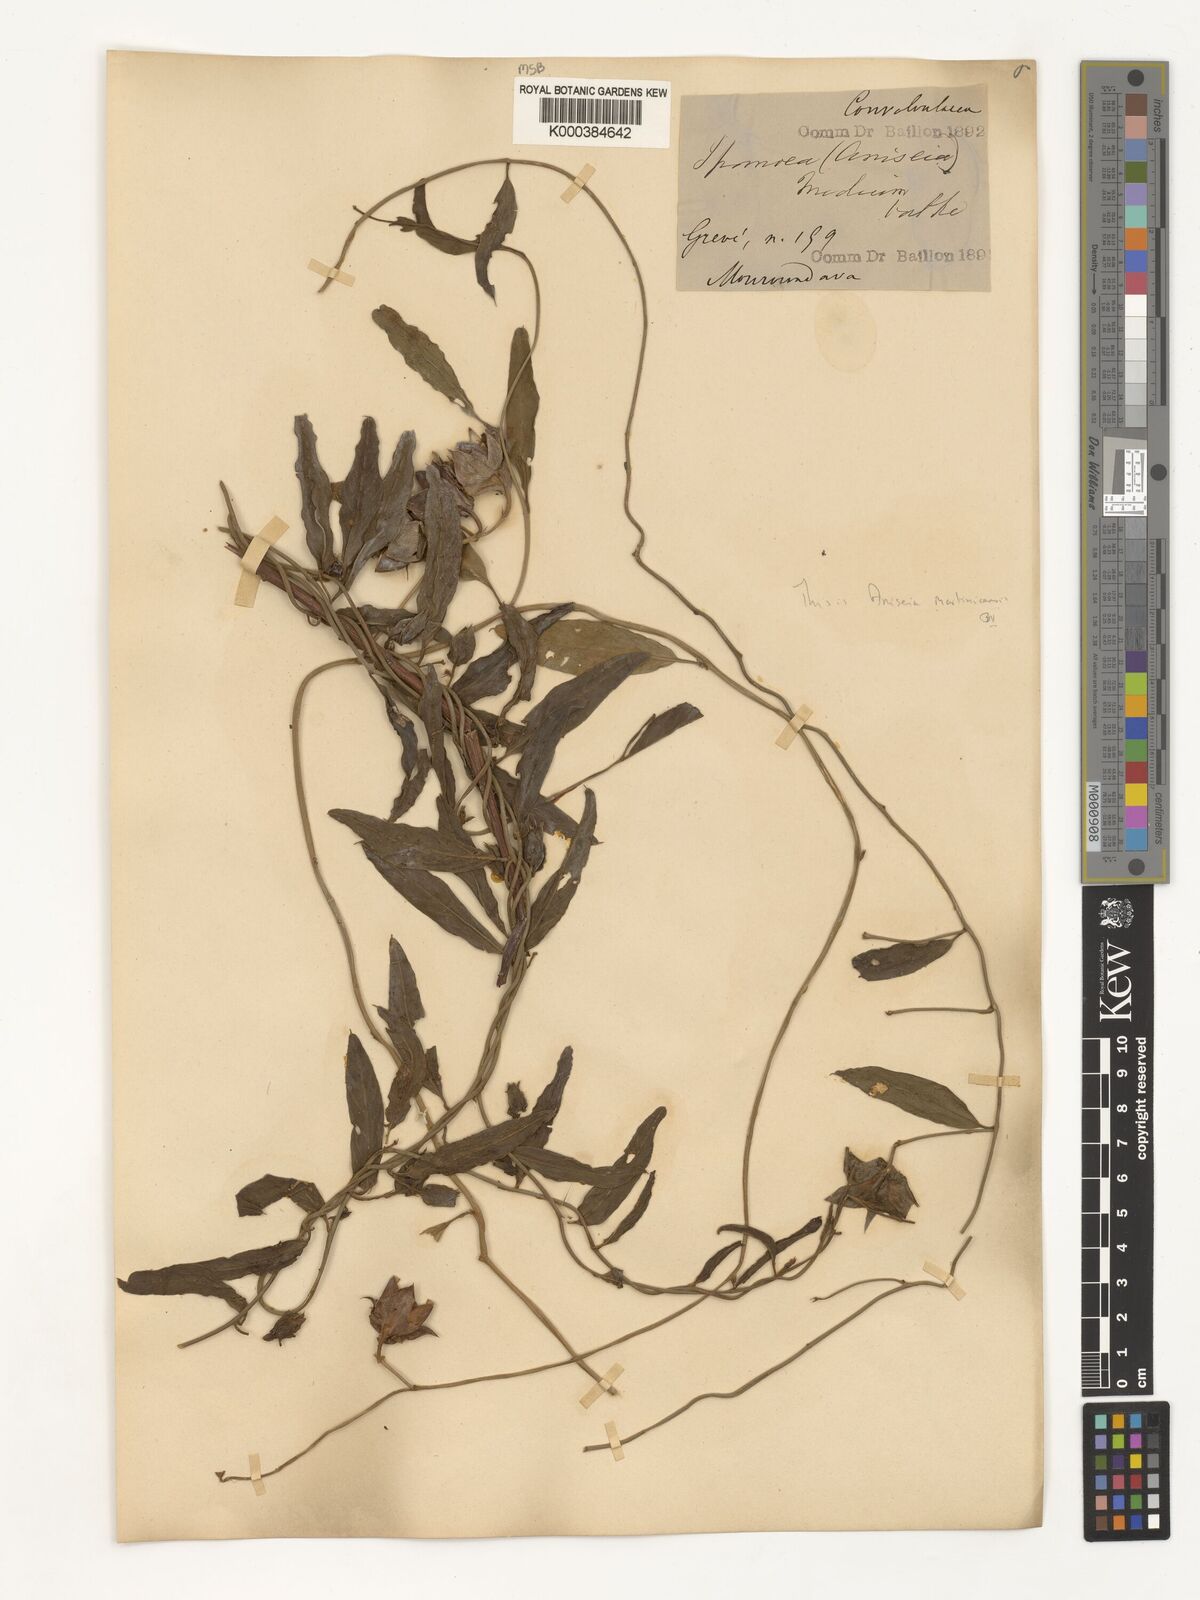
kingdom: Plantae
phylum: Tracheophyta
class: Magnoliopsida
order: Solanales
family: Convolvulaceae
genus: Aniseia
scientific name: Aniseia martinicensis
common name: Kulayadambu
